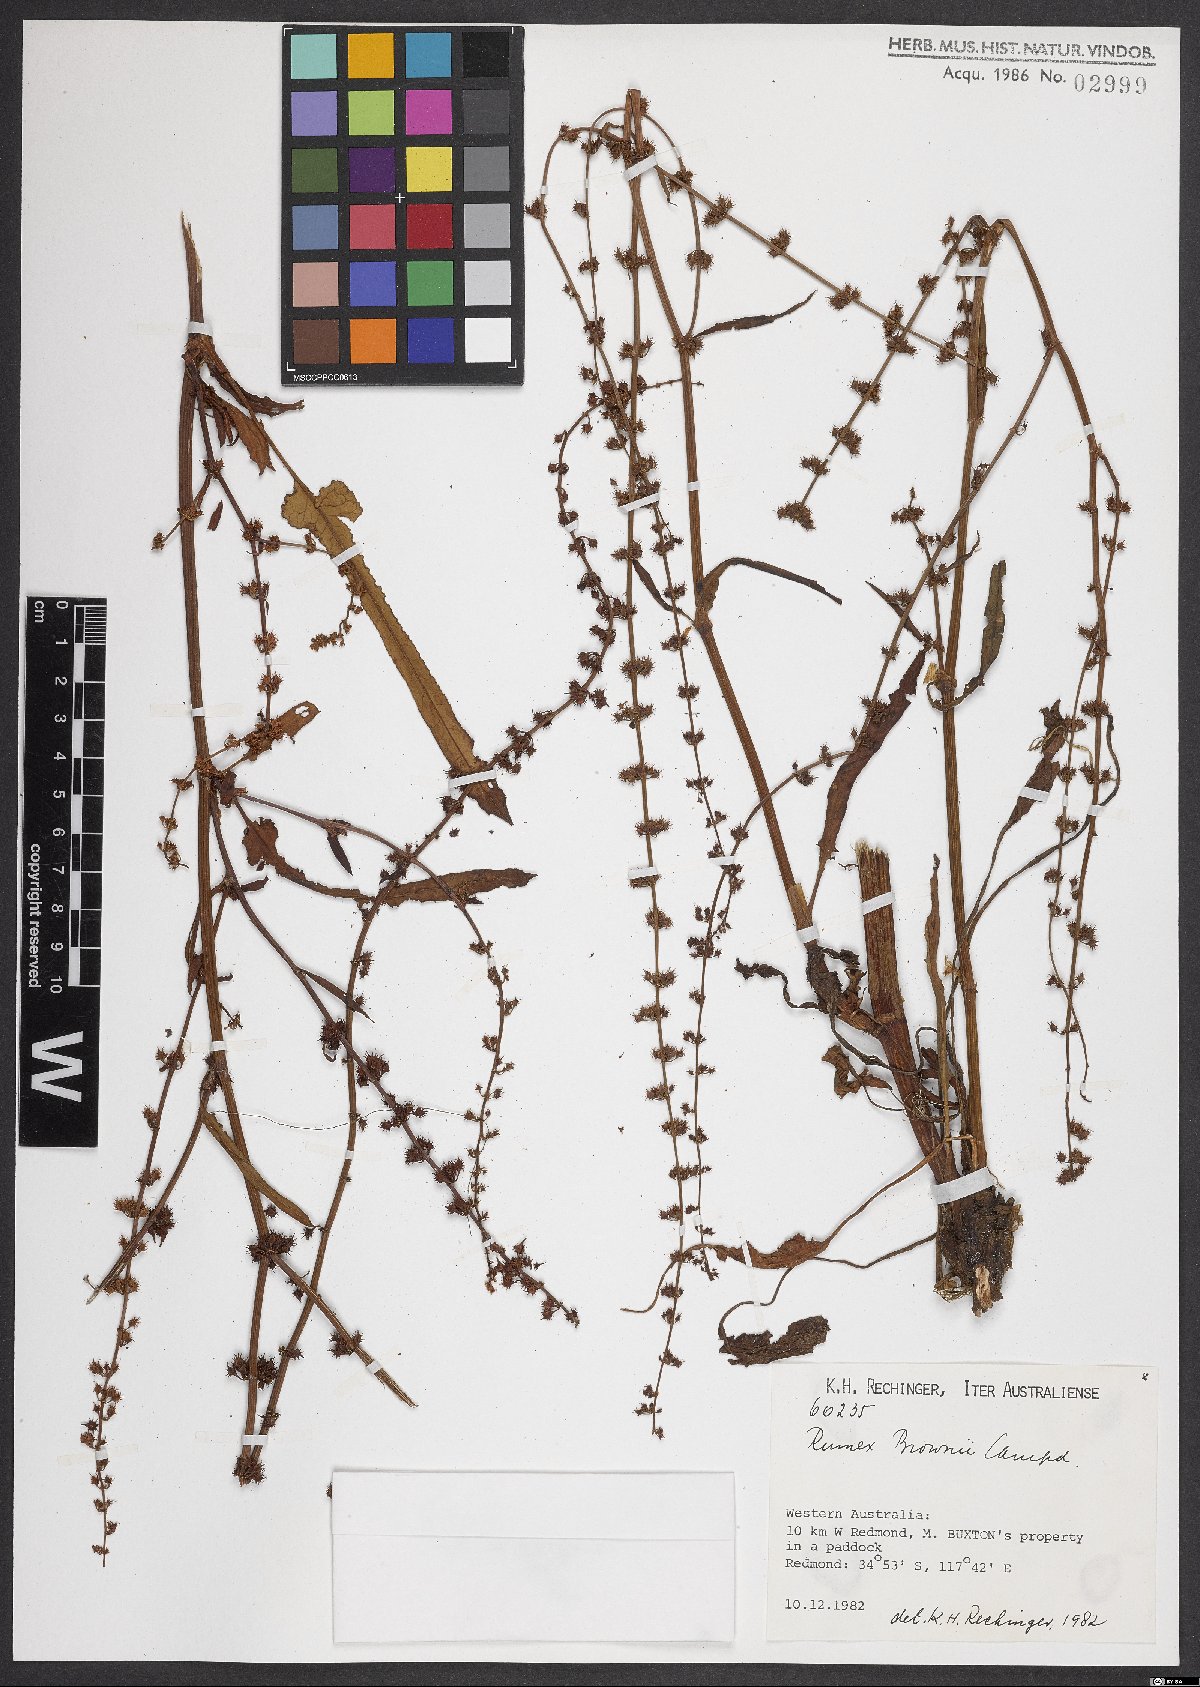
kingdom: Plantae
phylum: Tracheophyta
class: Magnoliopsida
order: Caryophyllales
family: Polygonaceae
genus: Rumex
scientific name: Rumex brownii
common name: Hooked dock
